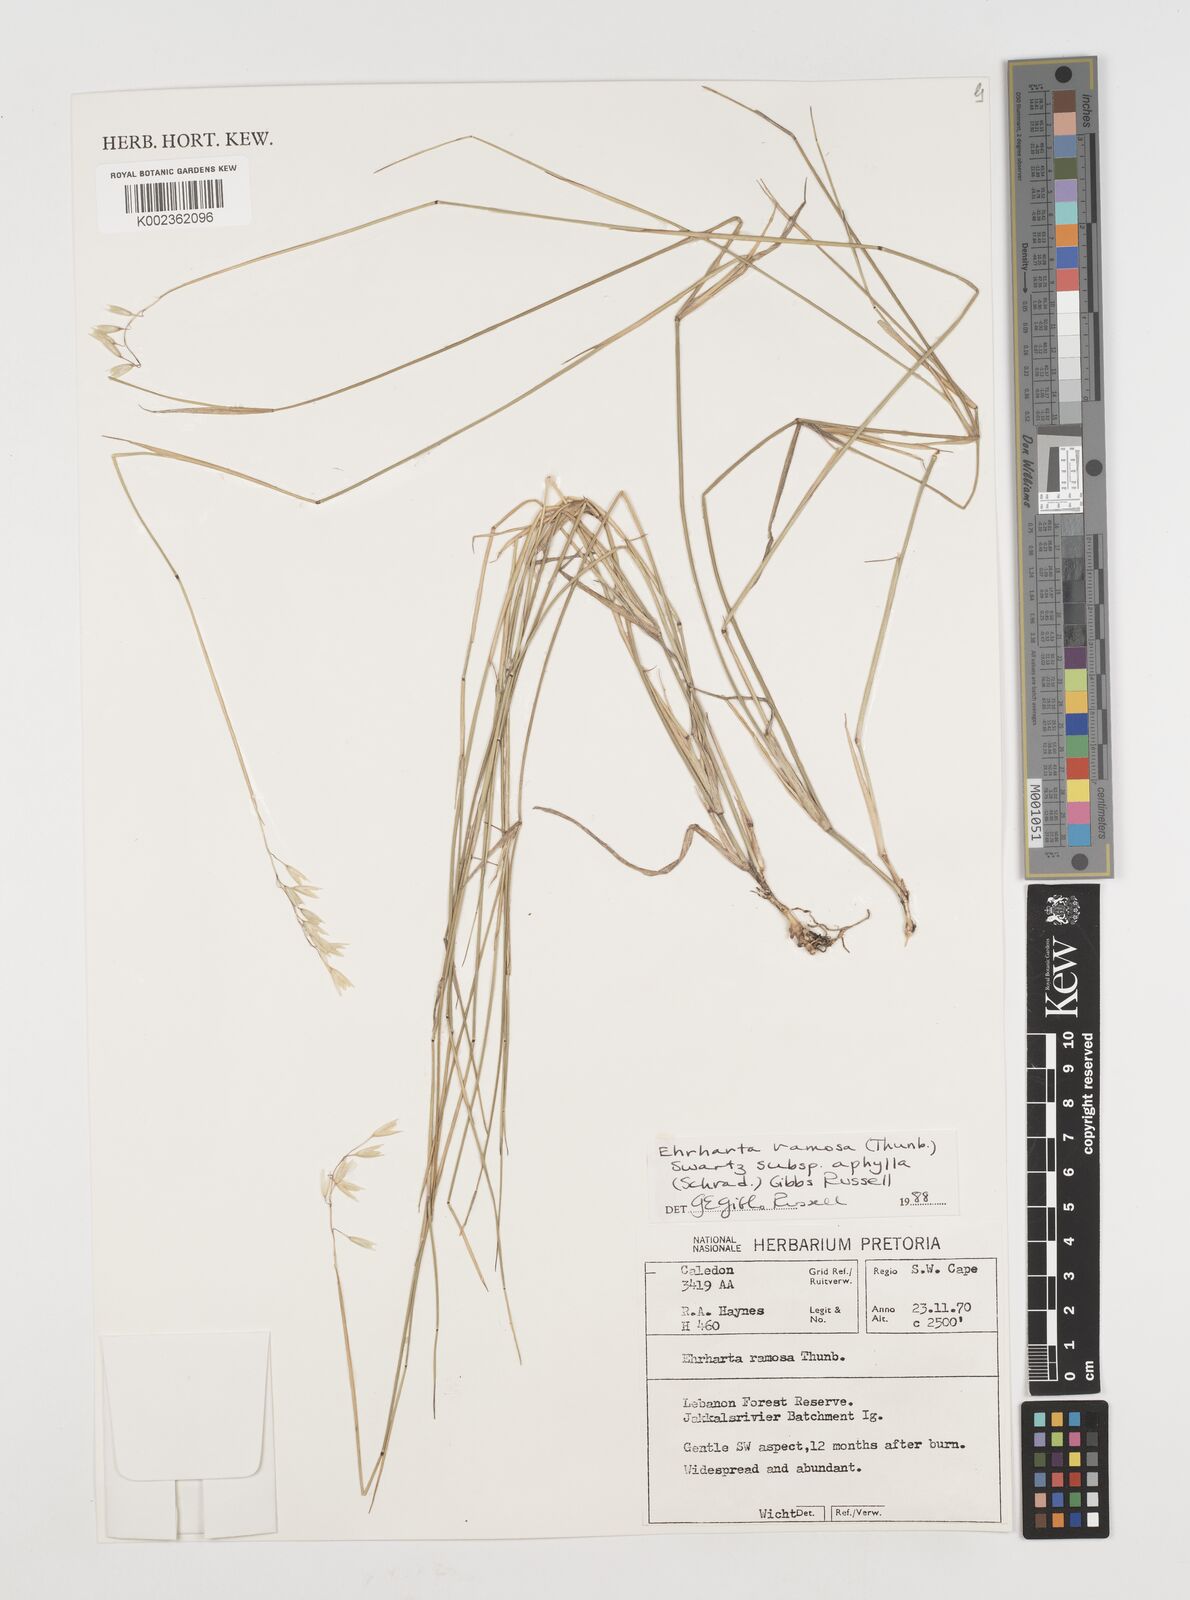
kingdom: Plantae
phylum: Tracheophyta
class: Liliopsida
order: Poales
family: Poaceae
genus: Ehrharta
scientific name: Ehrharta digyna
